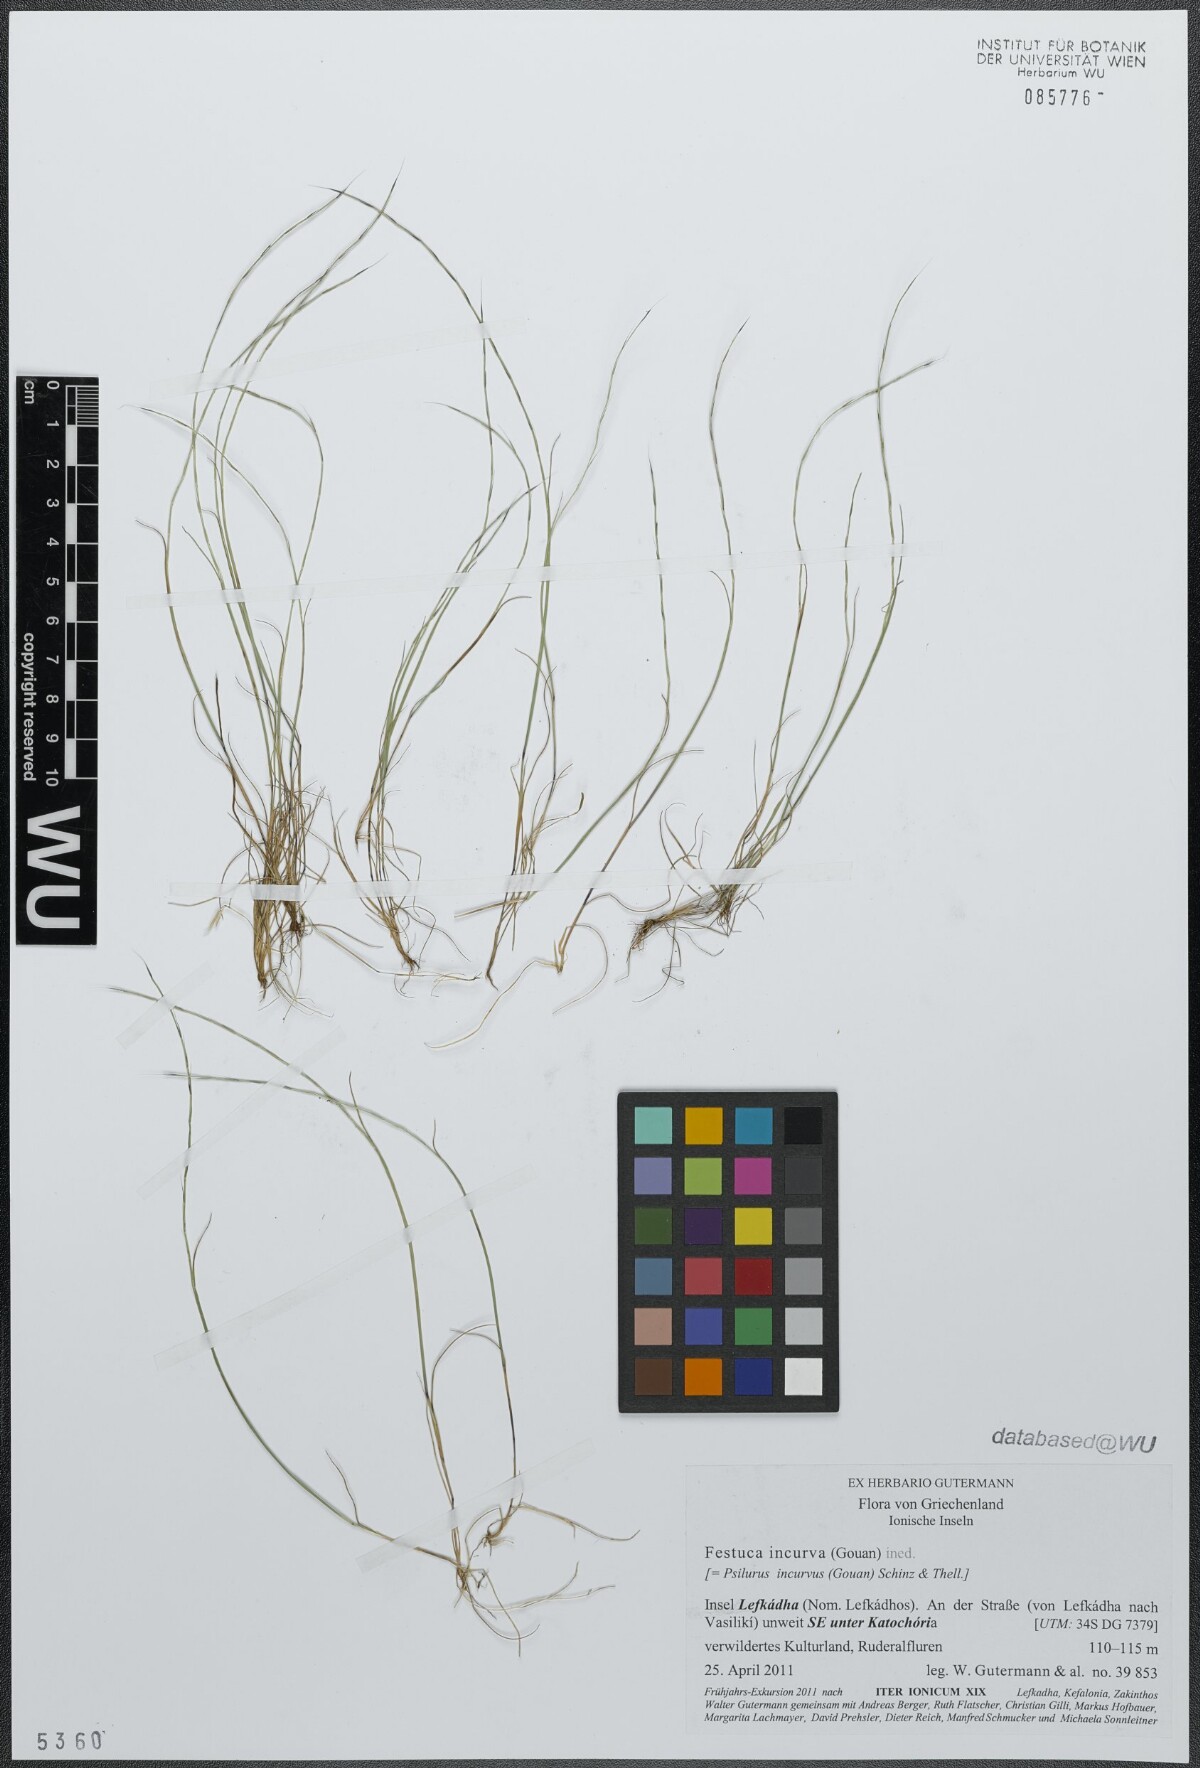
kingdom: Plantae
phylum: Tracheophyta
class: Liliopsida
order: Poales
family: Poaceae
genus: Festuca
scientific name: Festuca incurva
